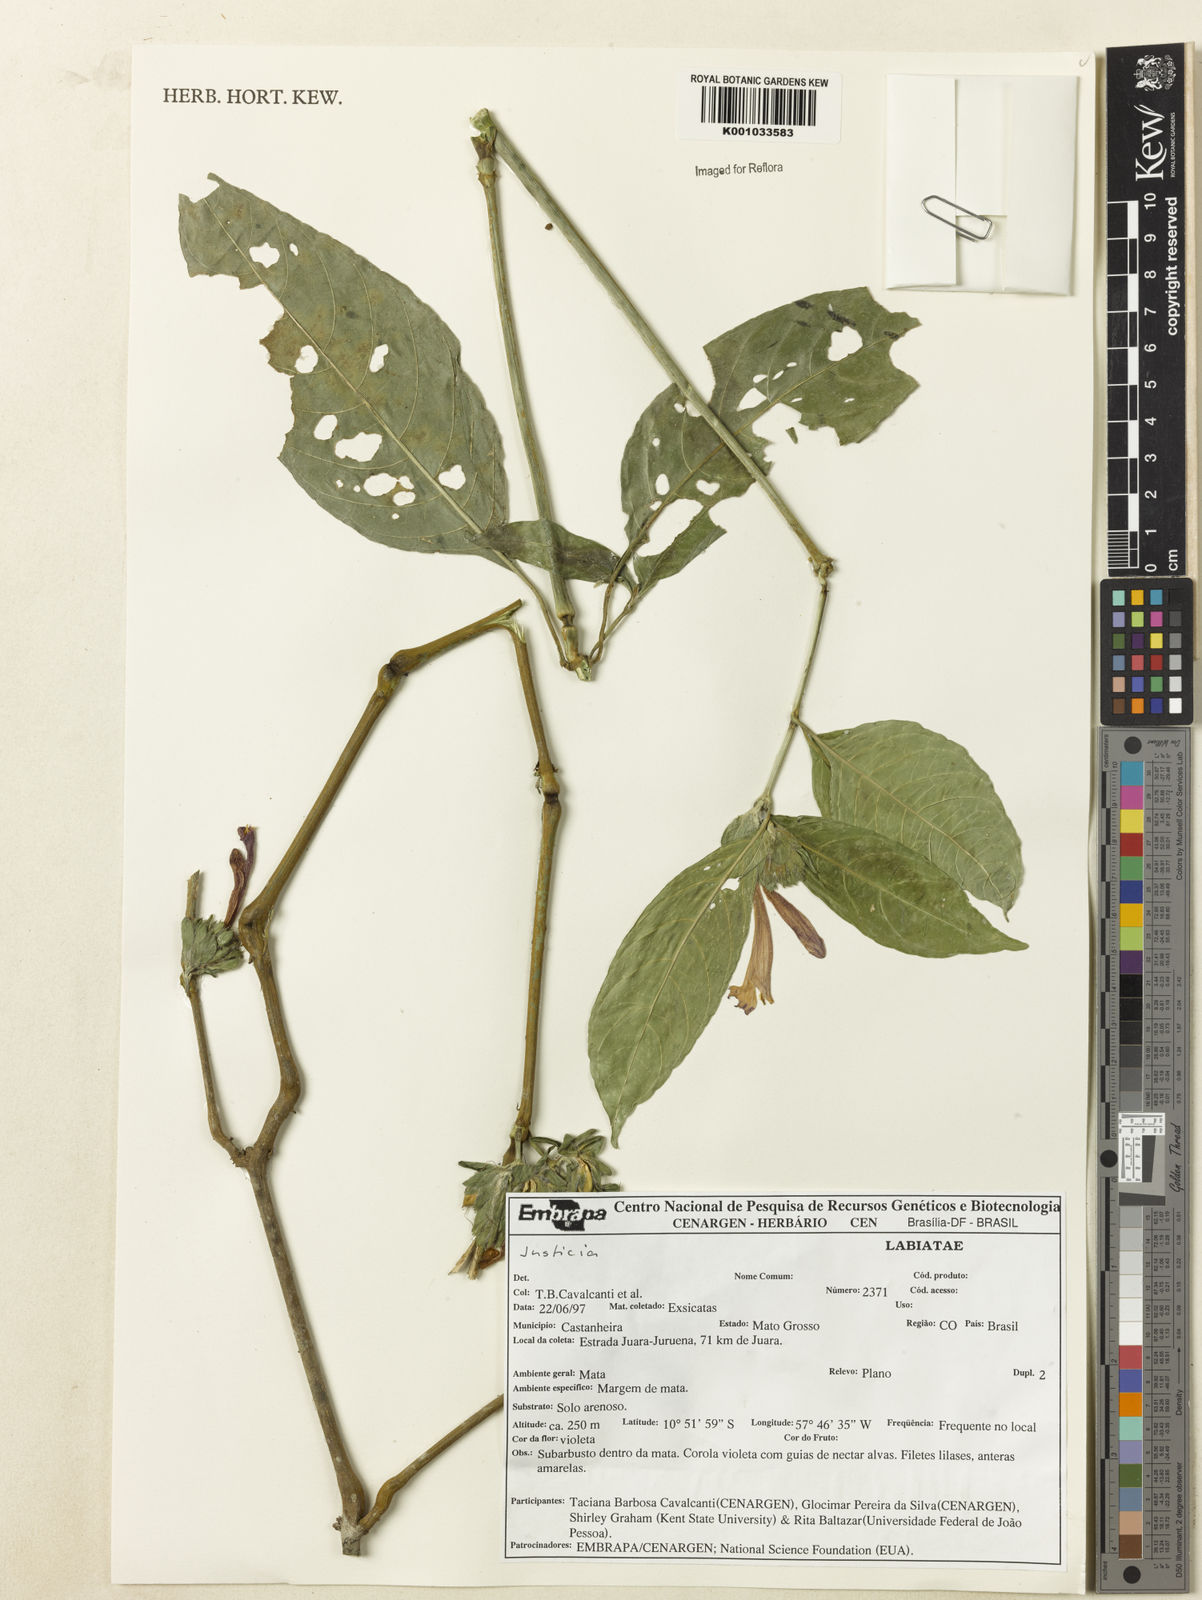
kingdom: Plantae
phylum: Tracheophyta
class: Magnoliopsida
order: Lamiales
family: Acanthaceae
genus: Justicia
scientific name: Justicia
